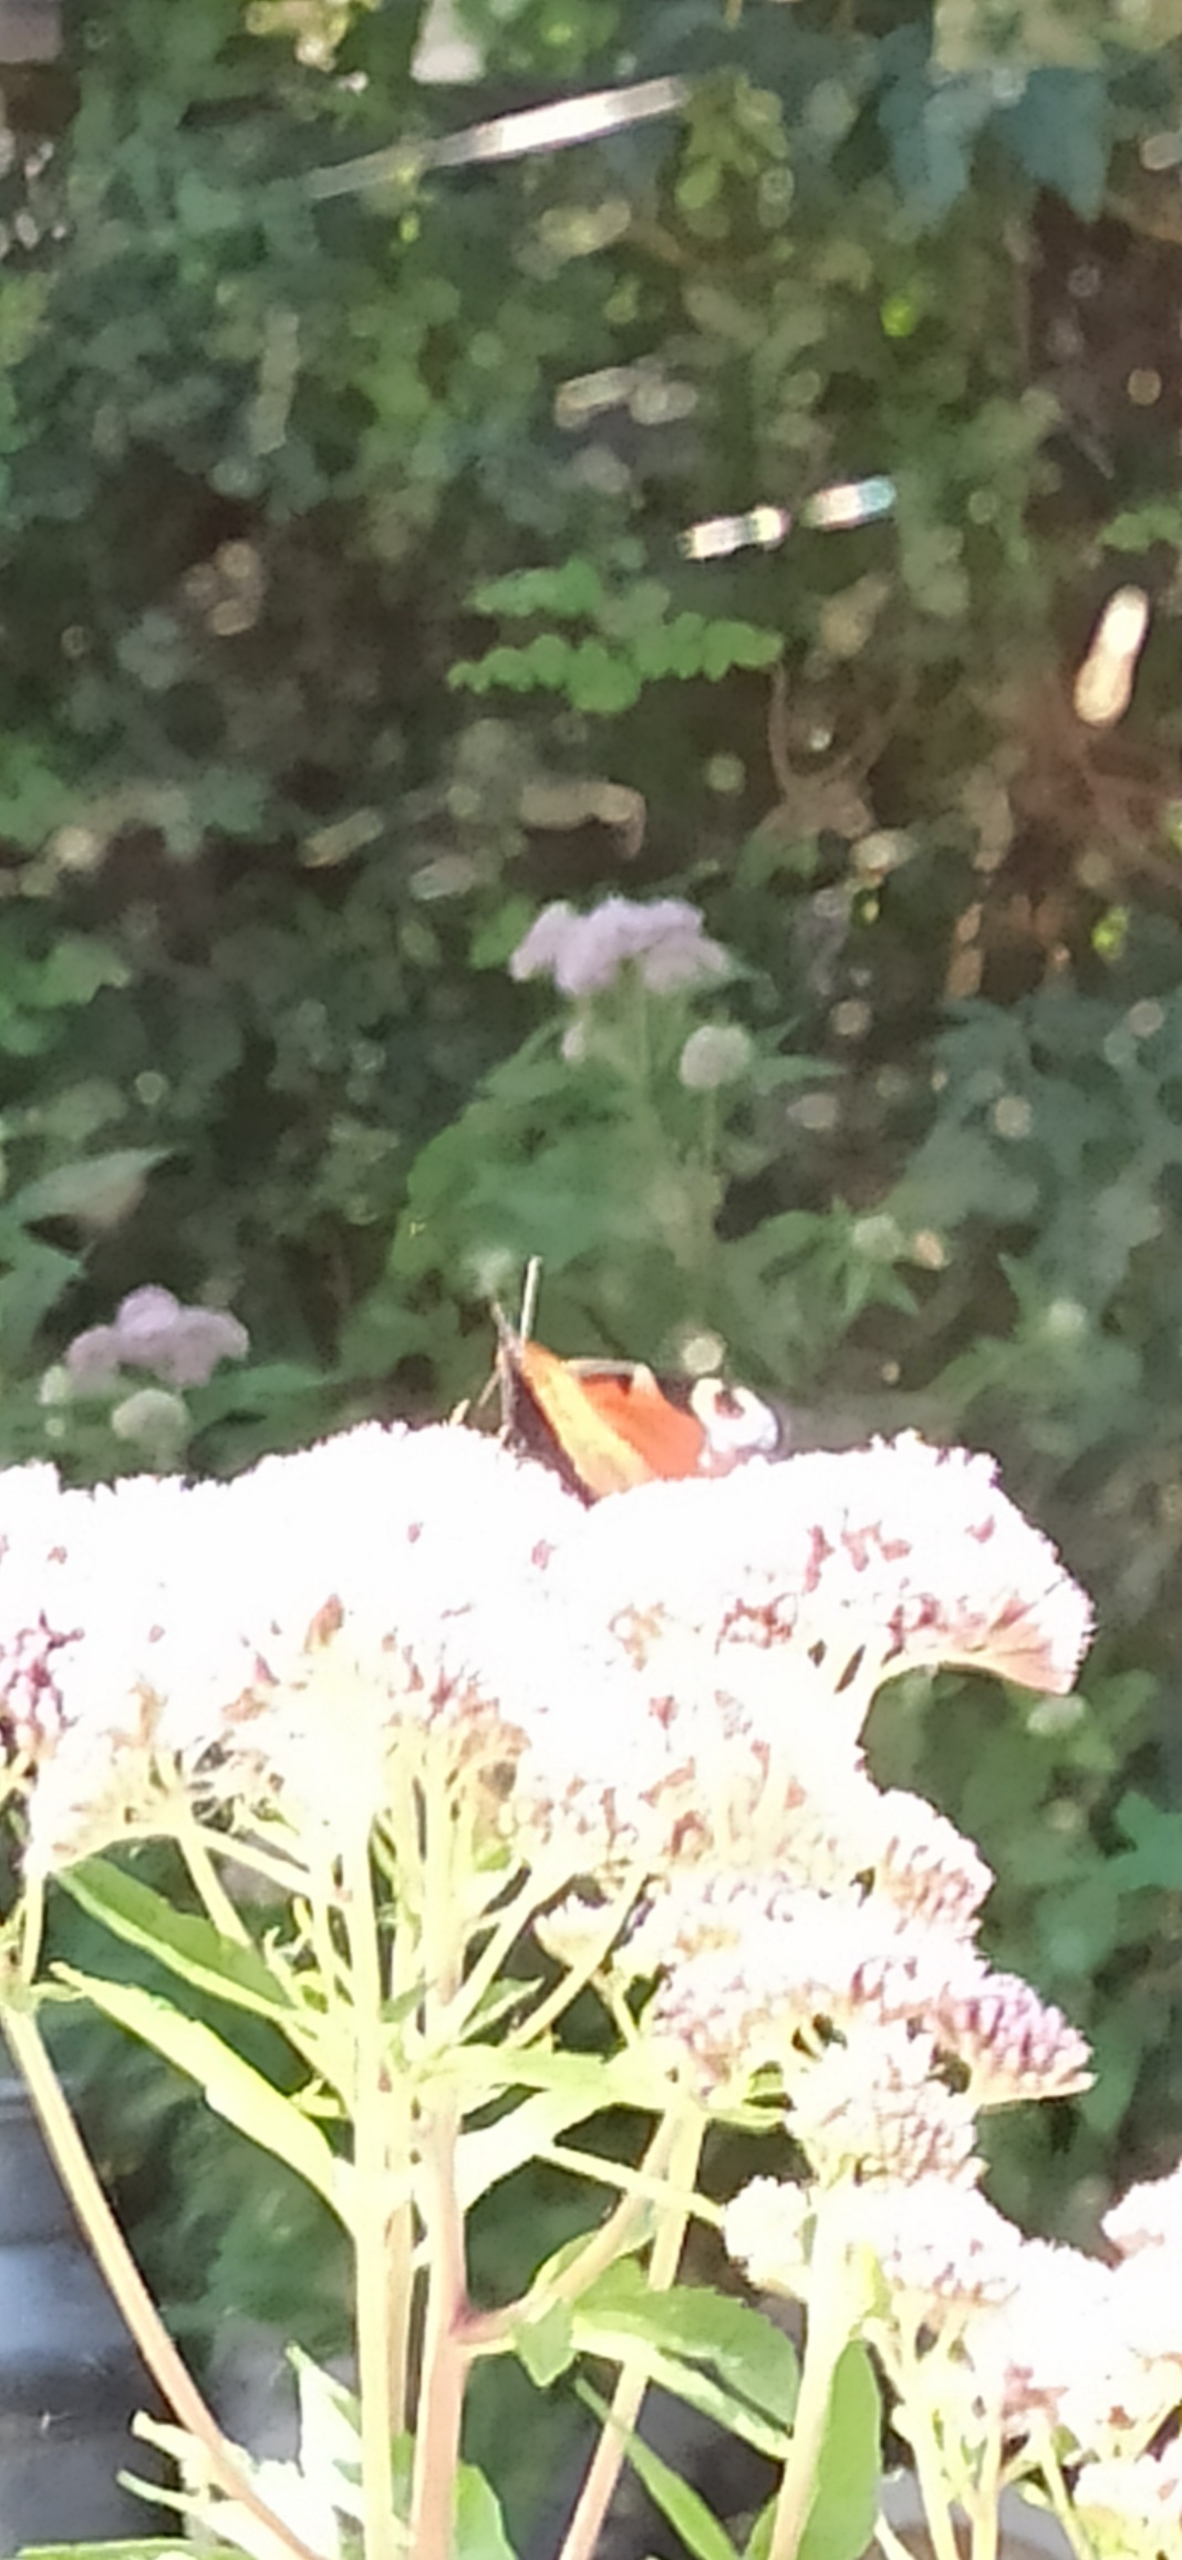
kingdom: Animalia
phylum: Arthropoda
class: Insecta
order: Lepidoptera
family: Nymphalidae
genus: Aglais
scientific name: Aglais io
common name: Dagpåfugleøje
